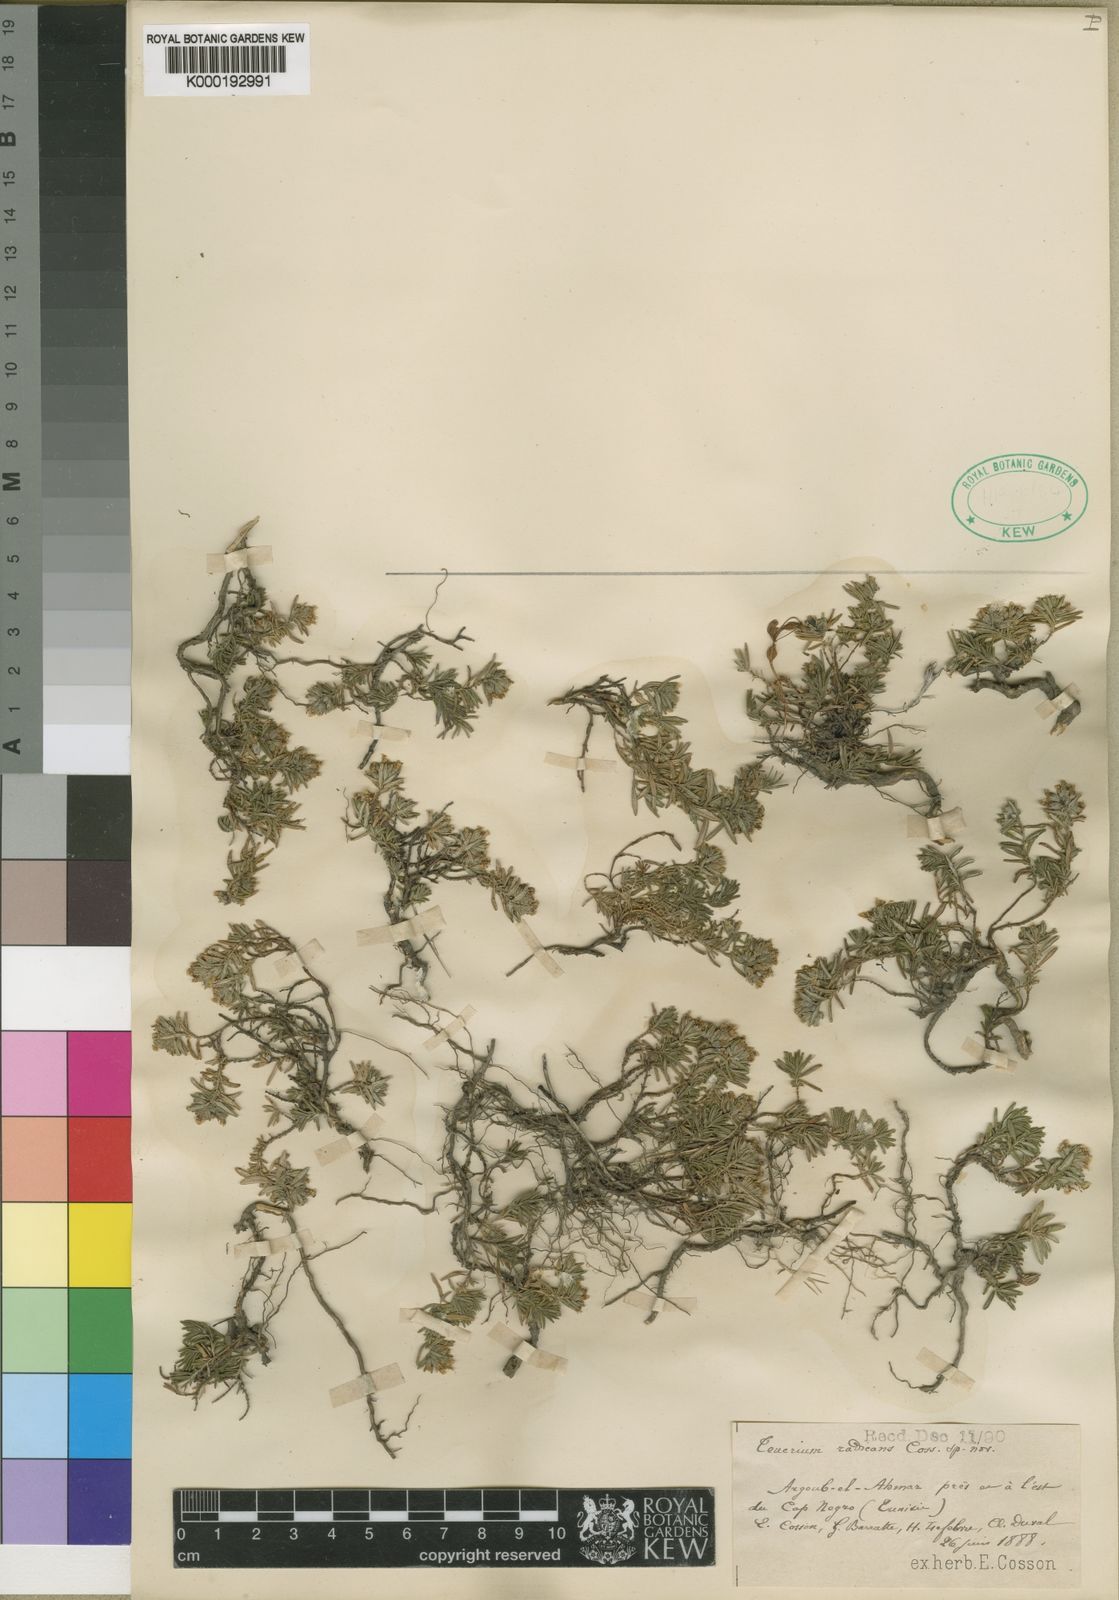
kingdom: Plantae
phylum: Tracheophyta
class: Magnoliopsida
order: Lamiales
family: Lamiaceae
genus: Teucrium
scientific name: Teucrium
